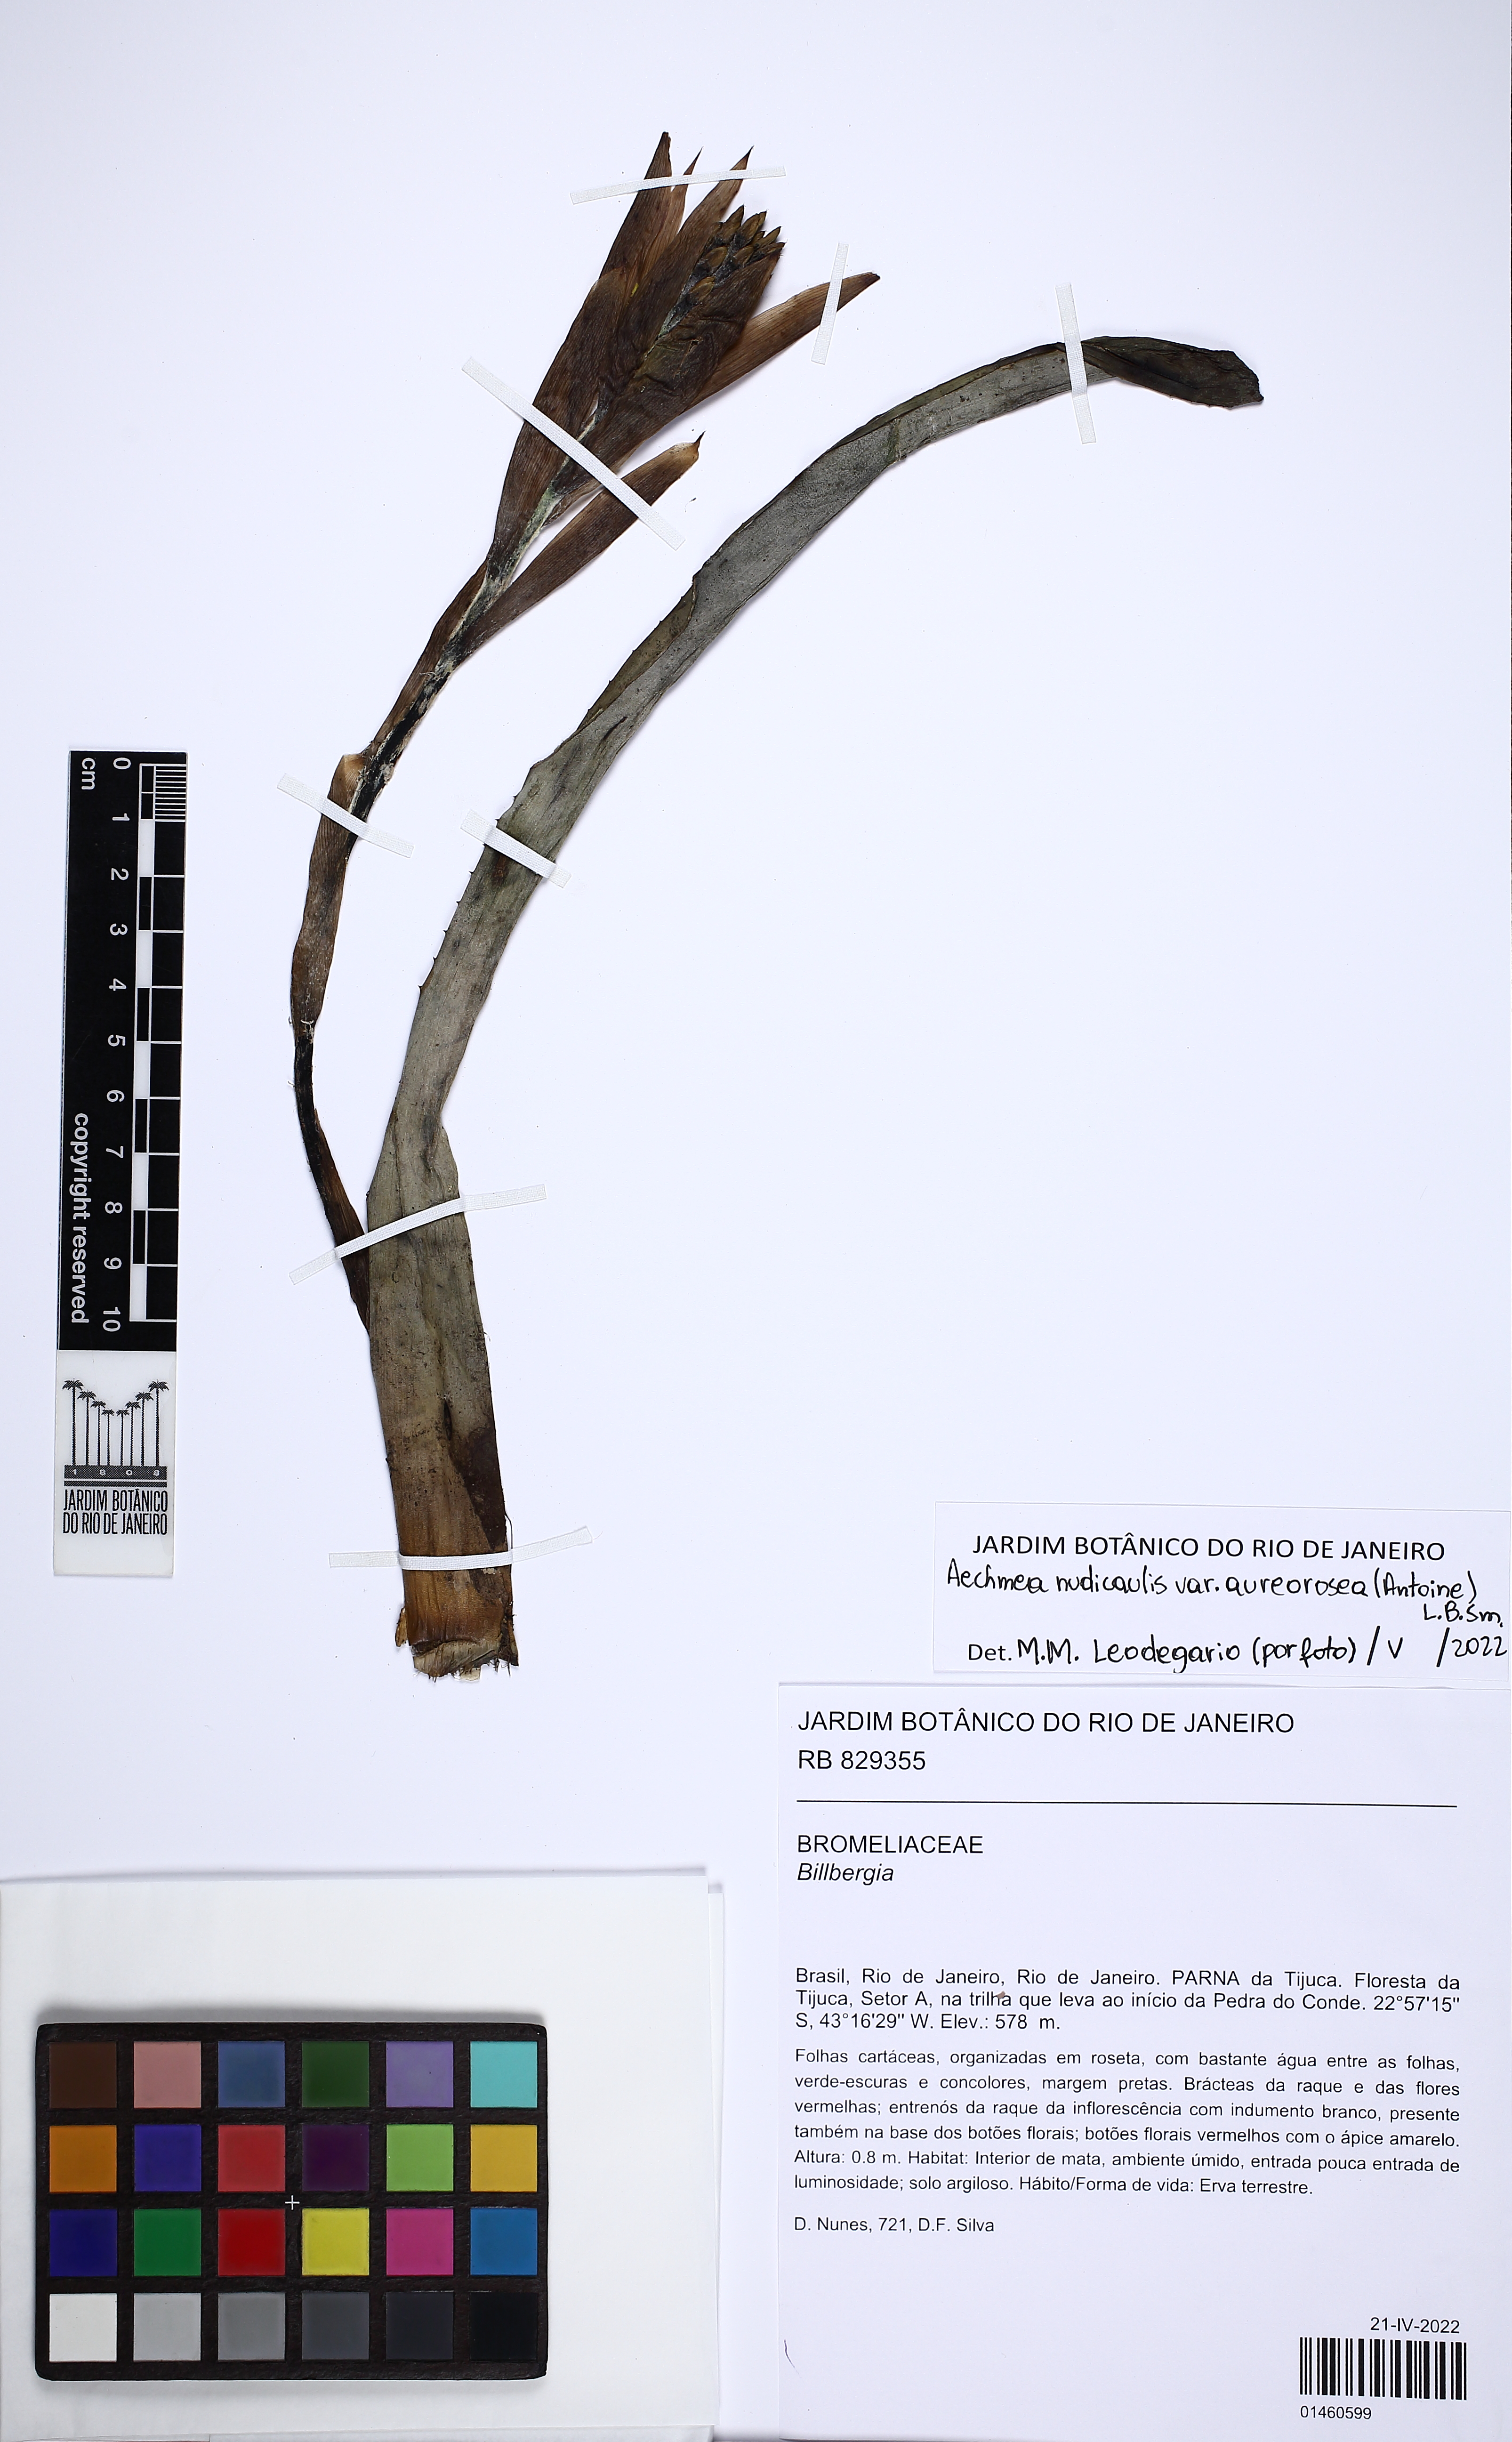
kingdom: Plantae
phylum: Tracheophyta
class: Liliopsida
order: Poales
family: Bromeliaceae
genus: Aechmea
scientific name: Aechmea nudicaulis
